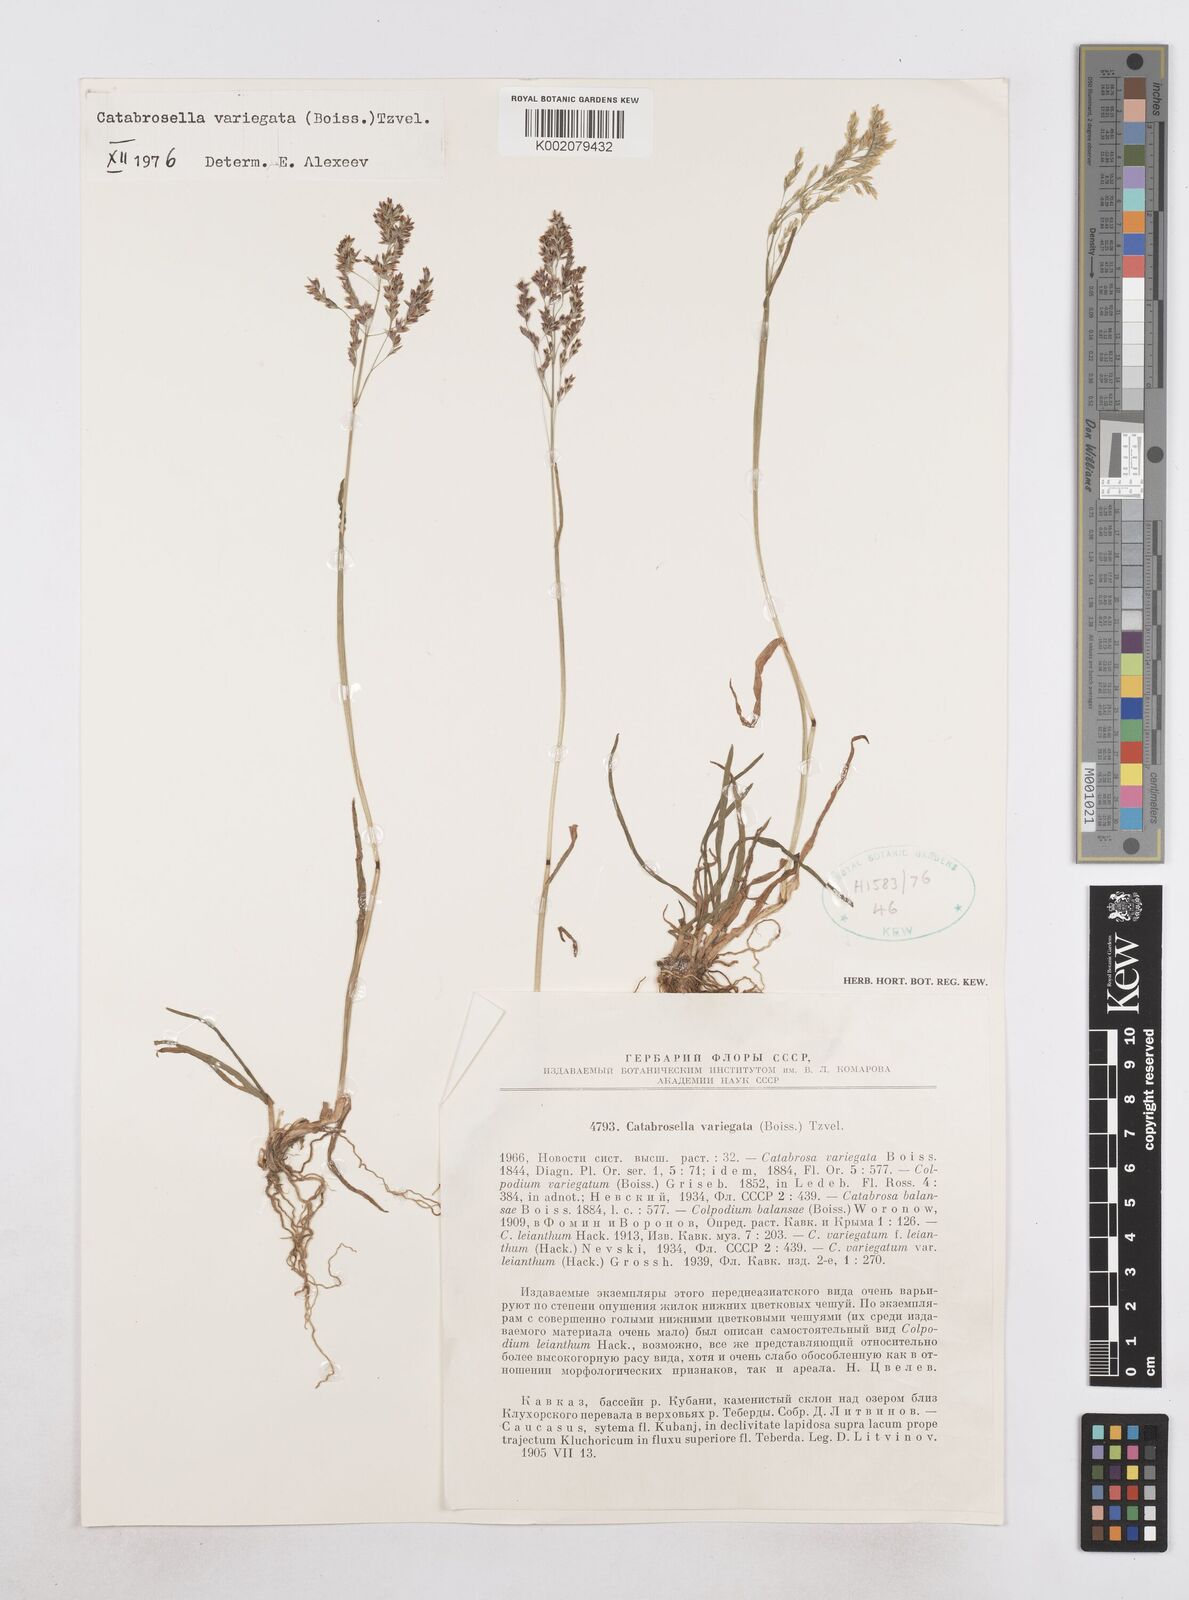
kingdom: Plantae
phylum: Tracheophyta
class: Liliopsida
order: Poales
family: Poaceae
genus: Catabrosella
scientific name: Catabrosella variegata
